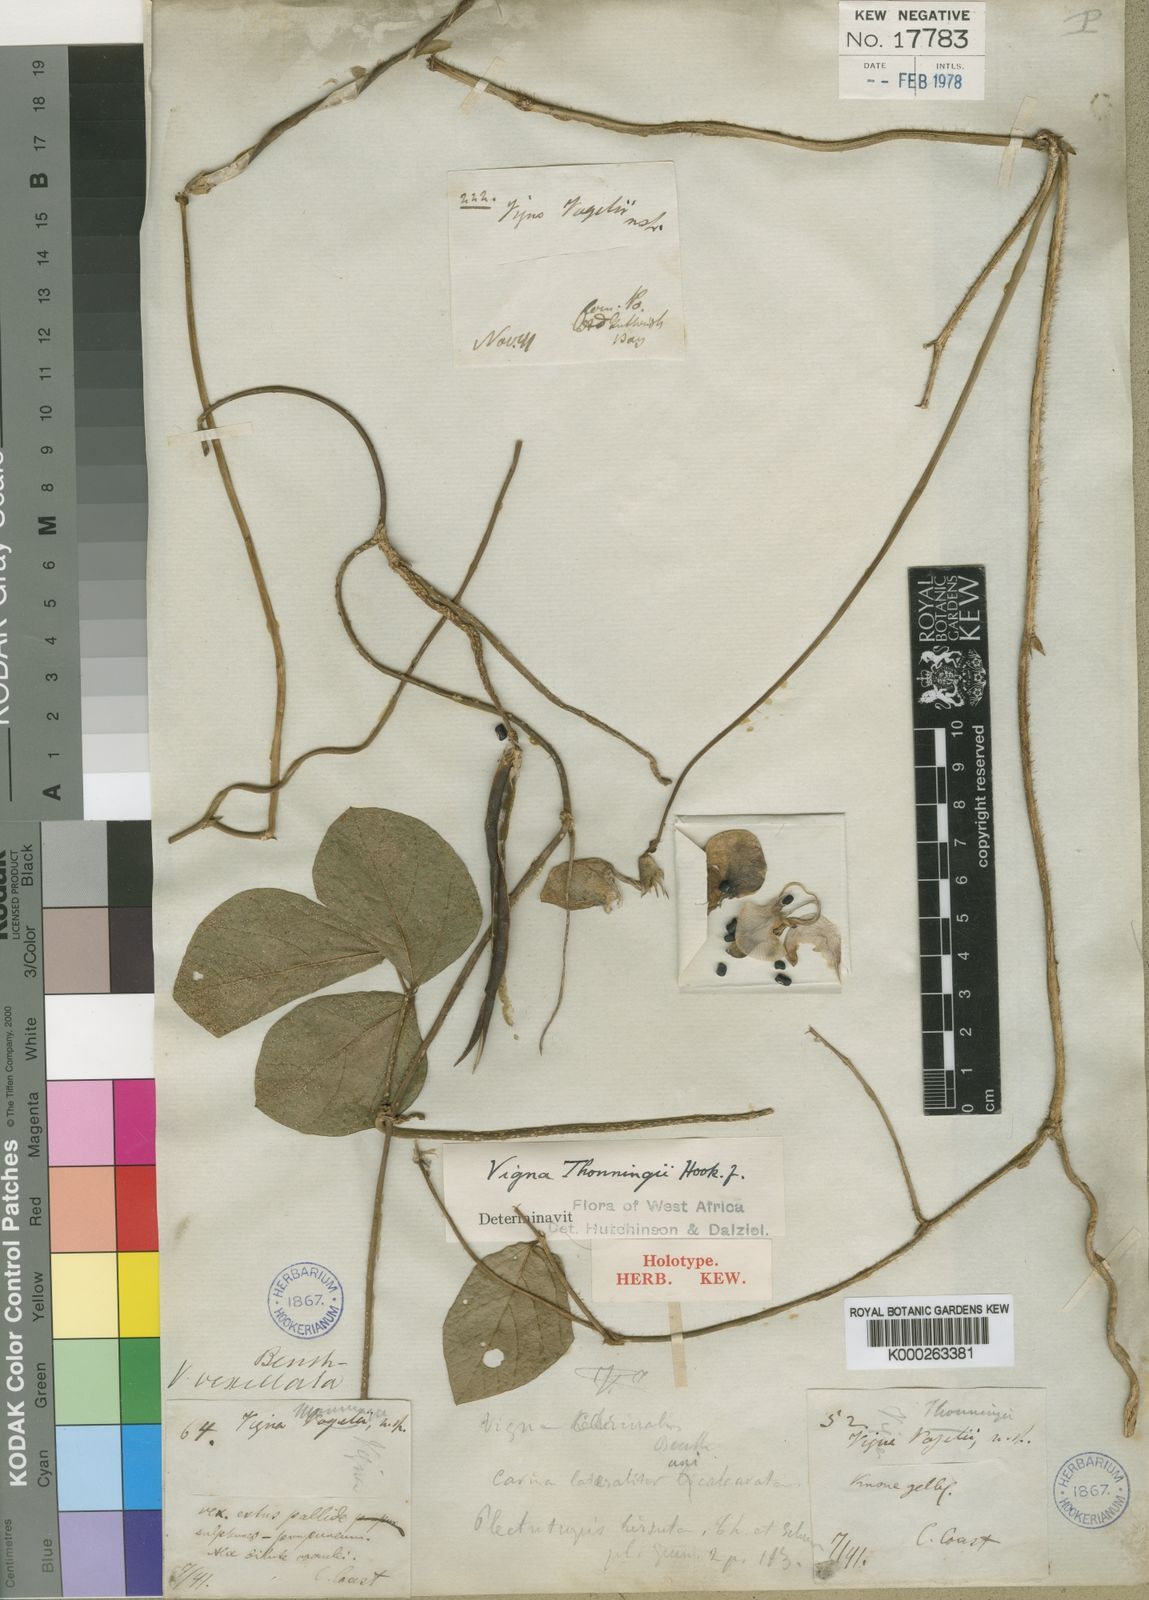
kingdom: Plantae
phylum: Tracheophyta
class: Magnoliopsida
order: Fabales
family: Fabaceae
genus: Vigna
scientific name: Vigna vexillata
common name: Zombi pea
